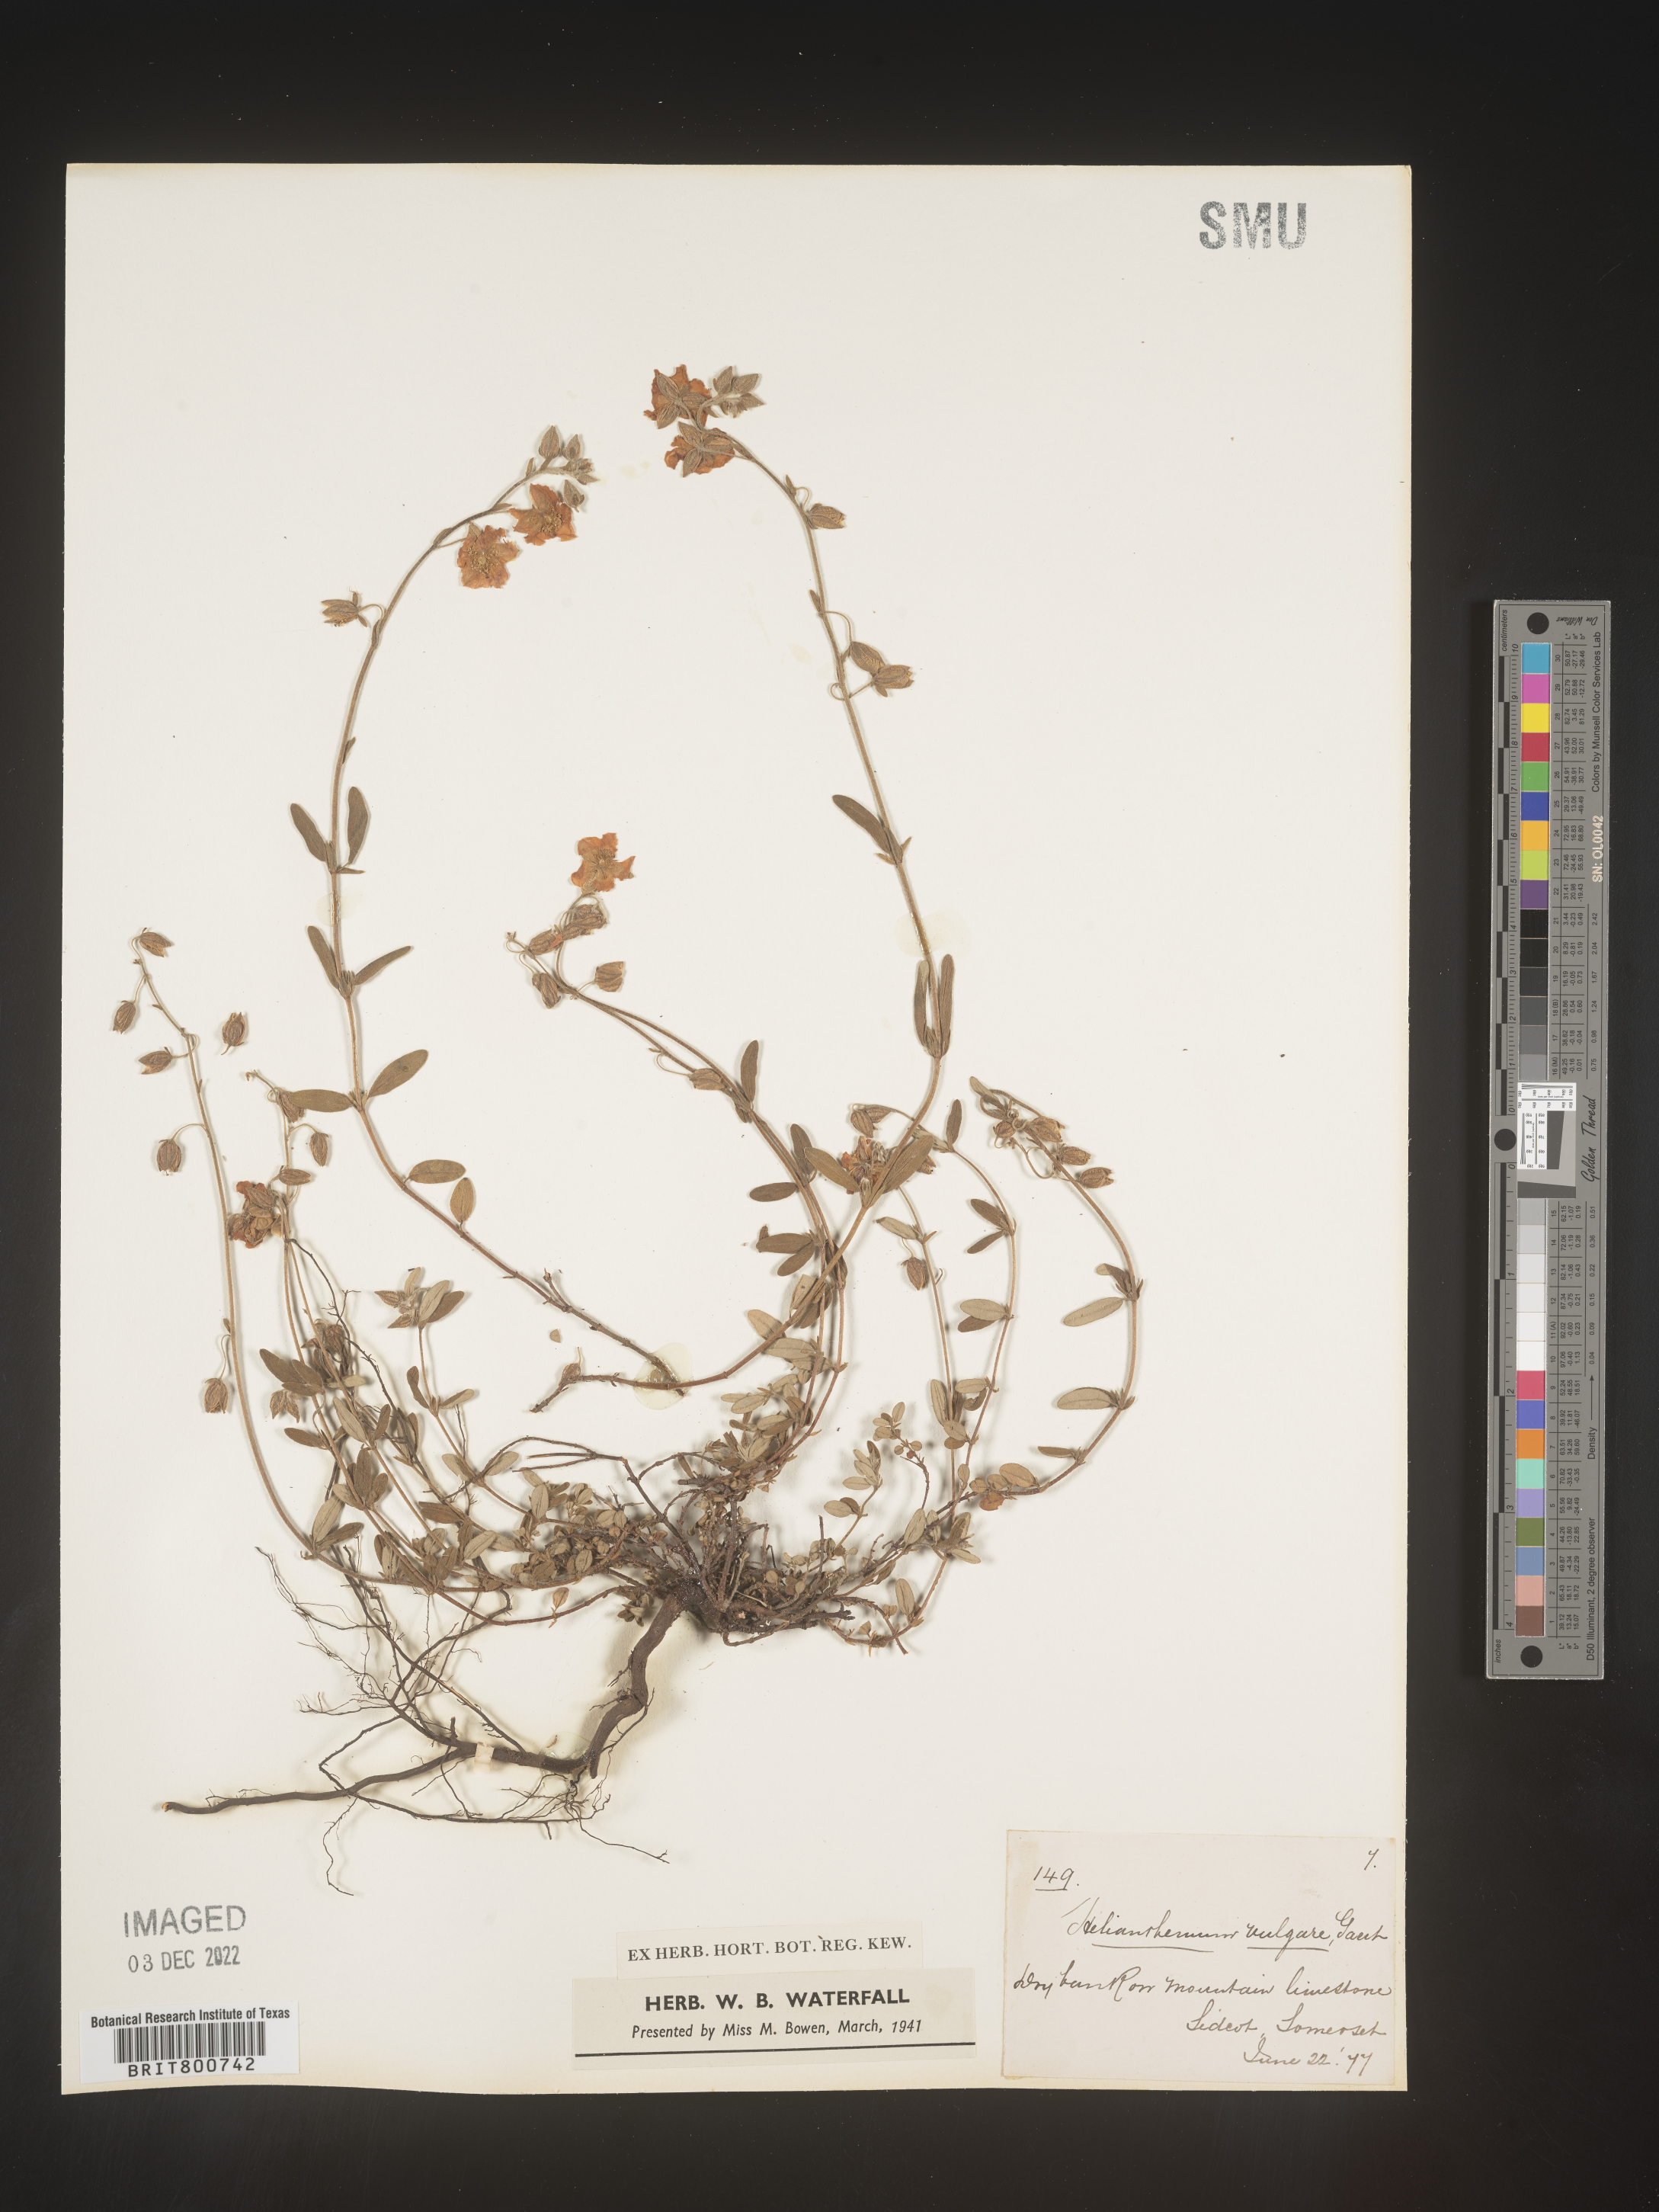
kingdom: Plantae
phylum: Tracheophyta
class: Magnoliopsida
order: Malvales
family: Cistaceae
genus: Helianthemum
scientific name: Helianthemum
